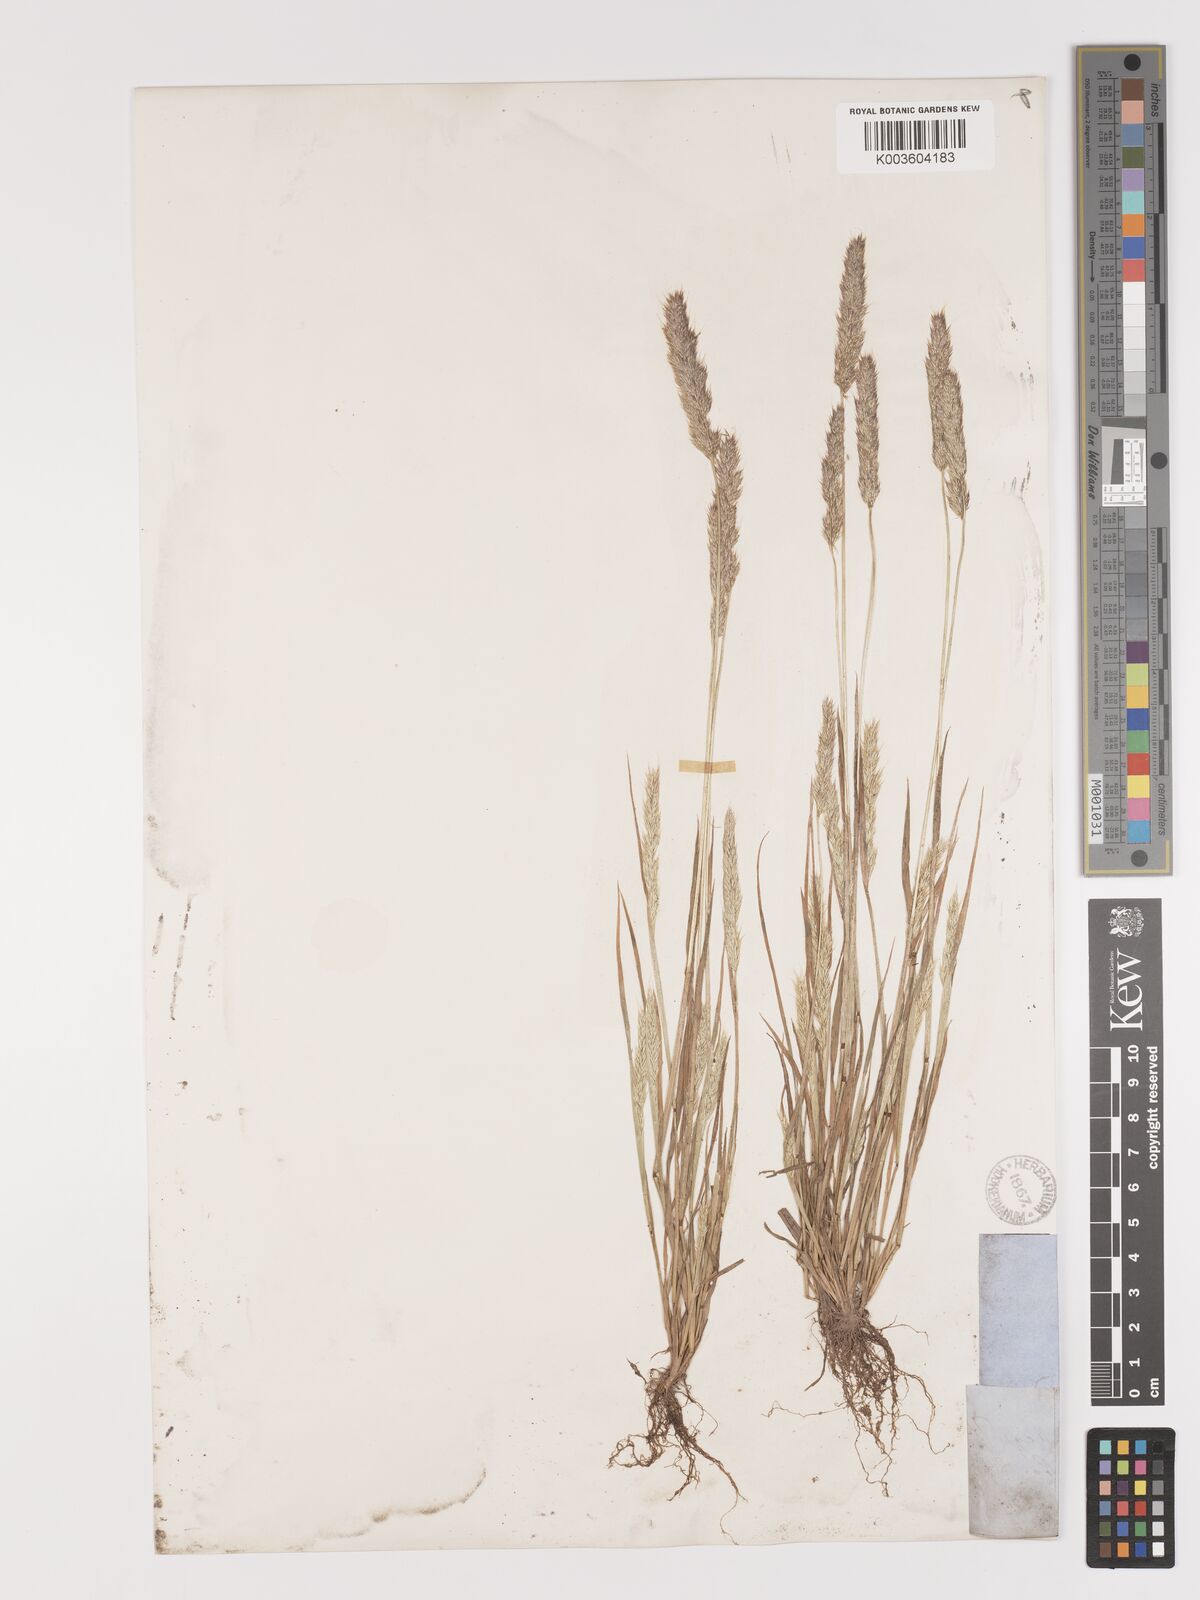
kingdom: Plantae
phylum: Tracheophyta
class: Liliopsida
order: Poales
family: Poaceae
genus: Agrostis
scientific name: Agrostis microphylla
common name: Small-leaf bent
